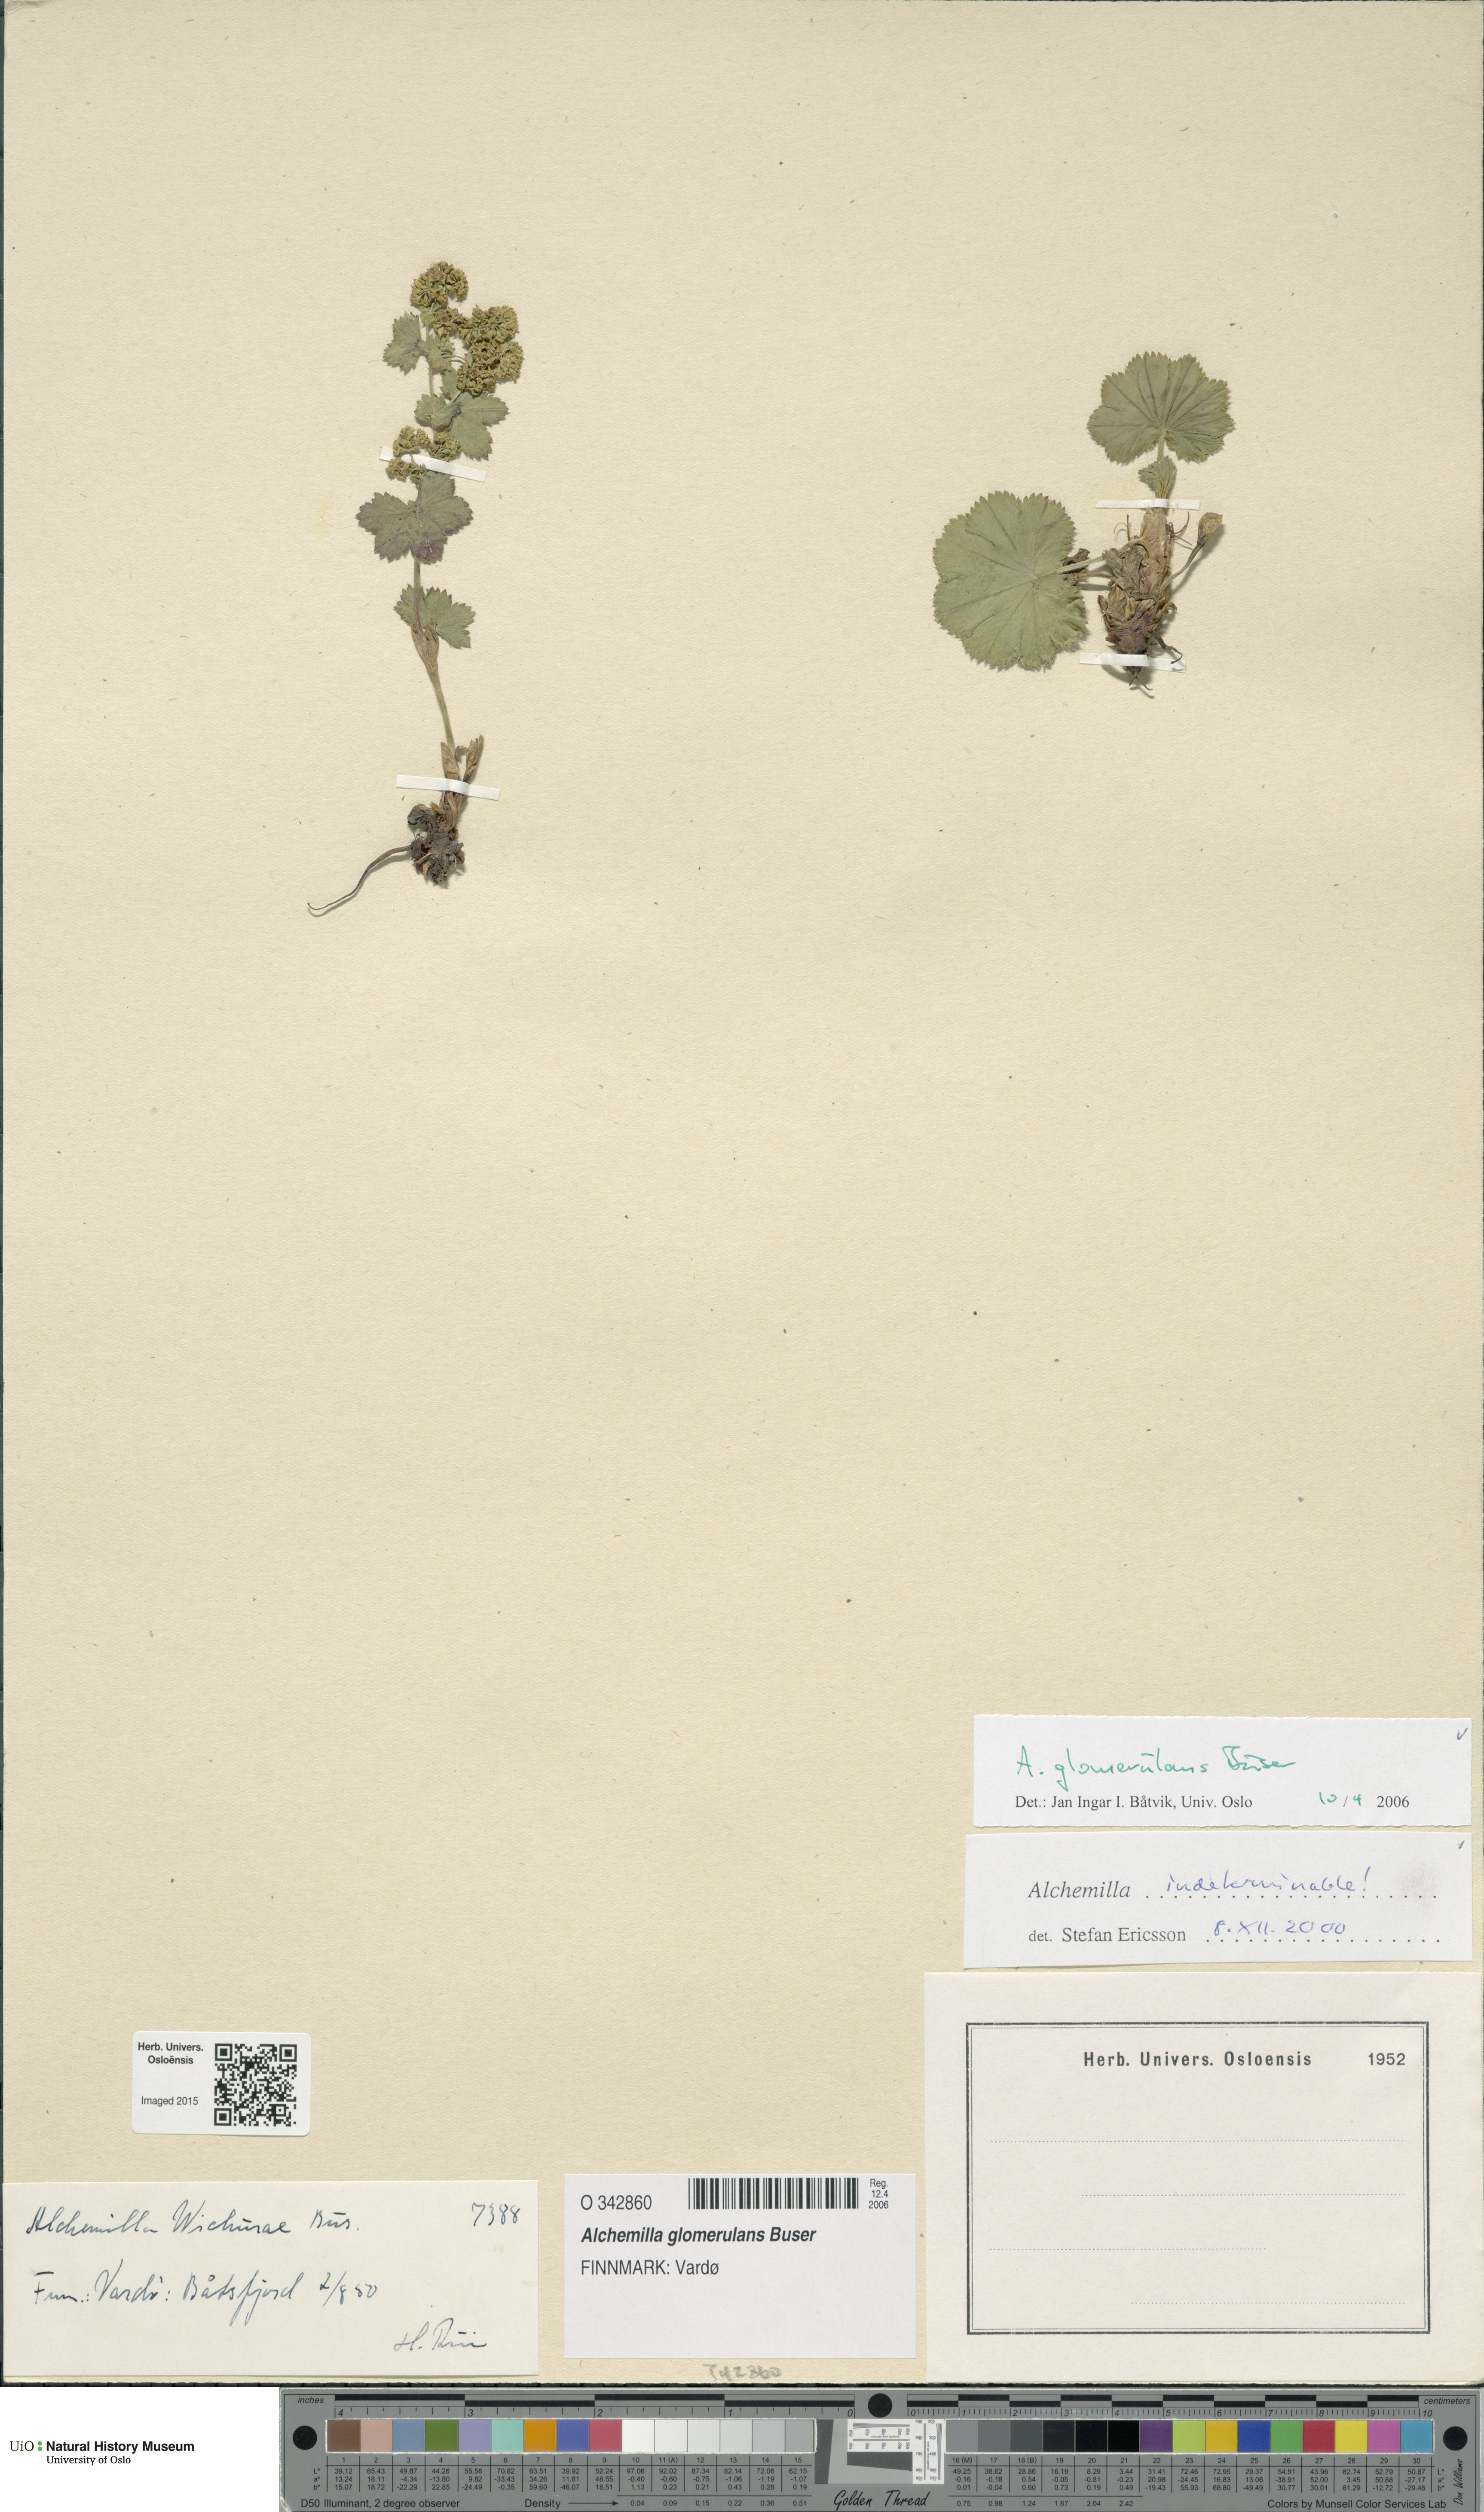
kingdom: Plantae
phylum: Tracheophyta
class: Magnoliopsida
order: Rosales
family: Rosaceae
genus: Alchemilla
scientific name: Alchemilla glomerulans
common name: Clustered lady's mantle
